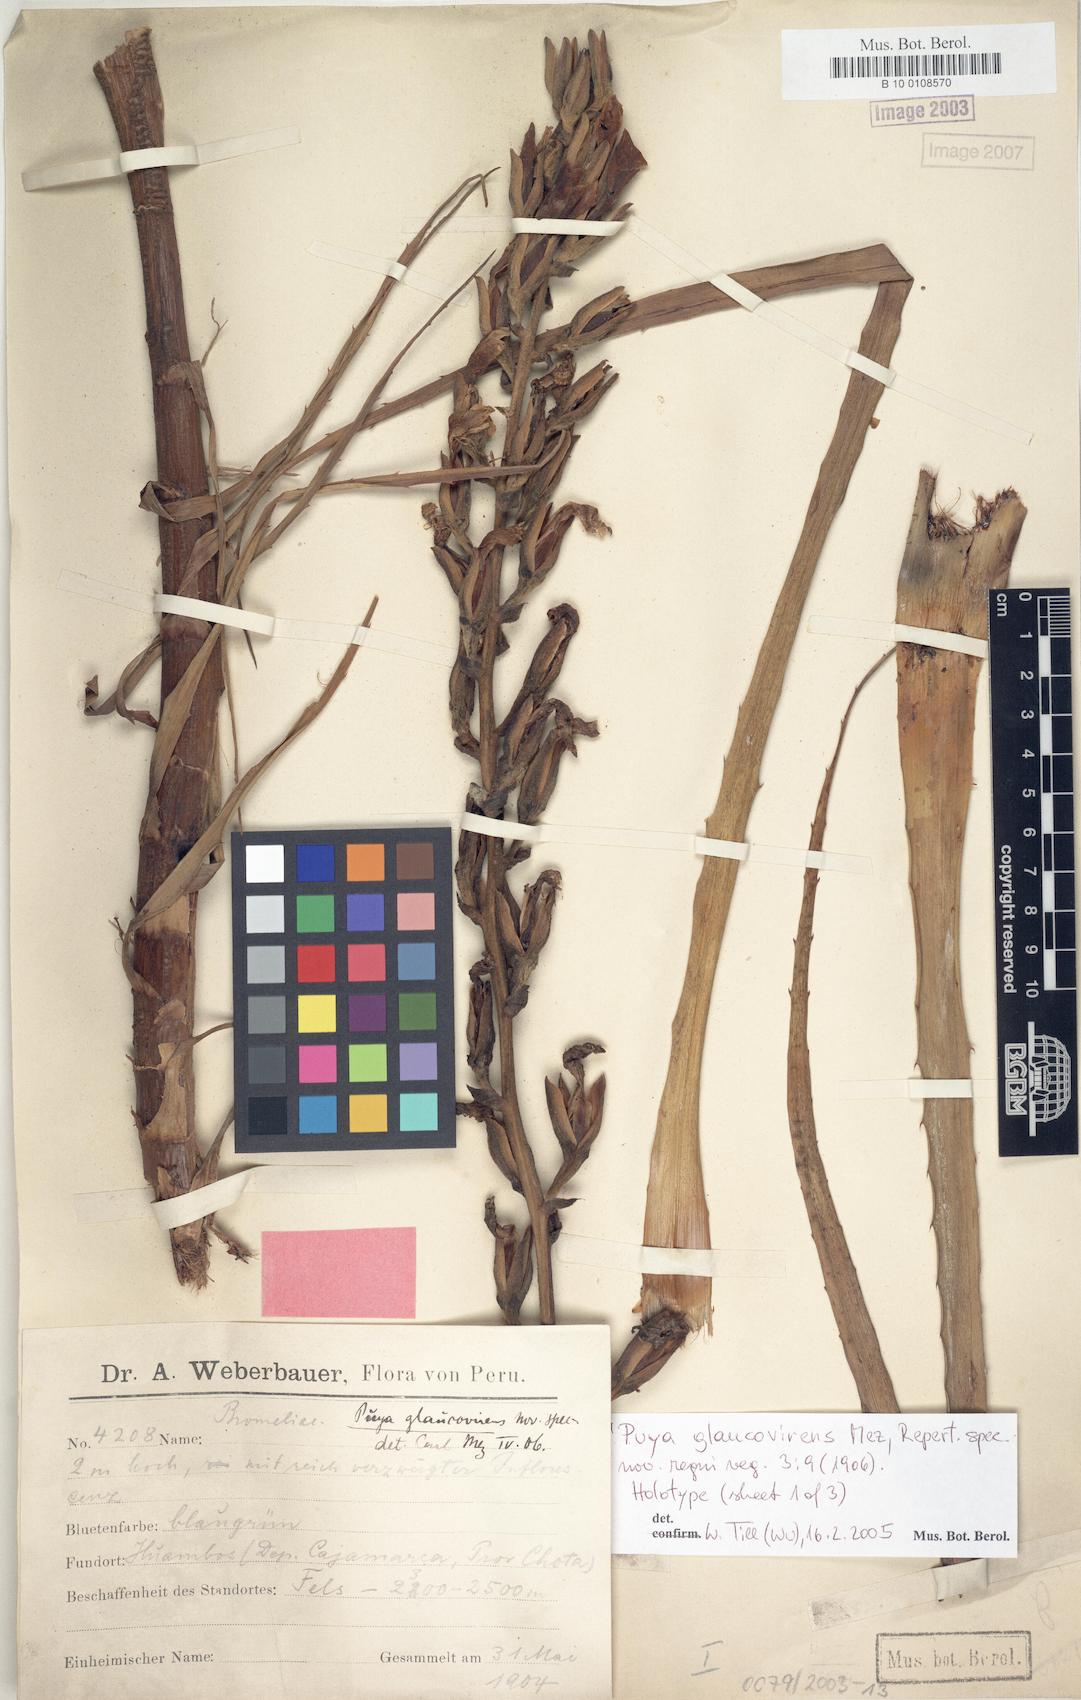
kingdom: Plantae
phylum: Tracheophyta
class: Liliopsida
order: Poales
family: Bromeliaceae
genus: Puya
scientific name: Puya glaucovirens
